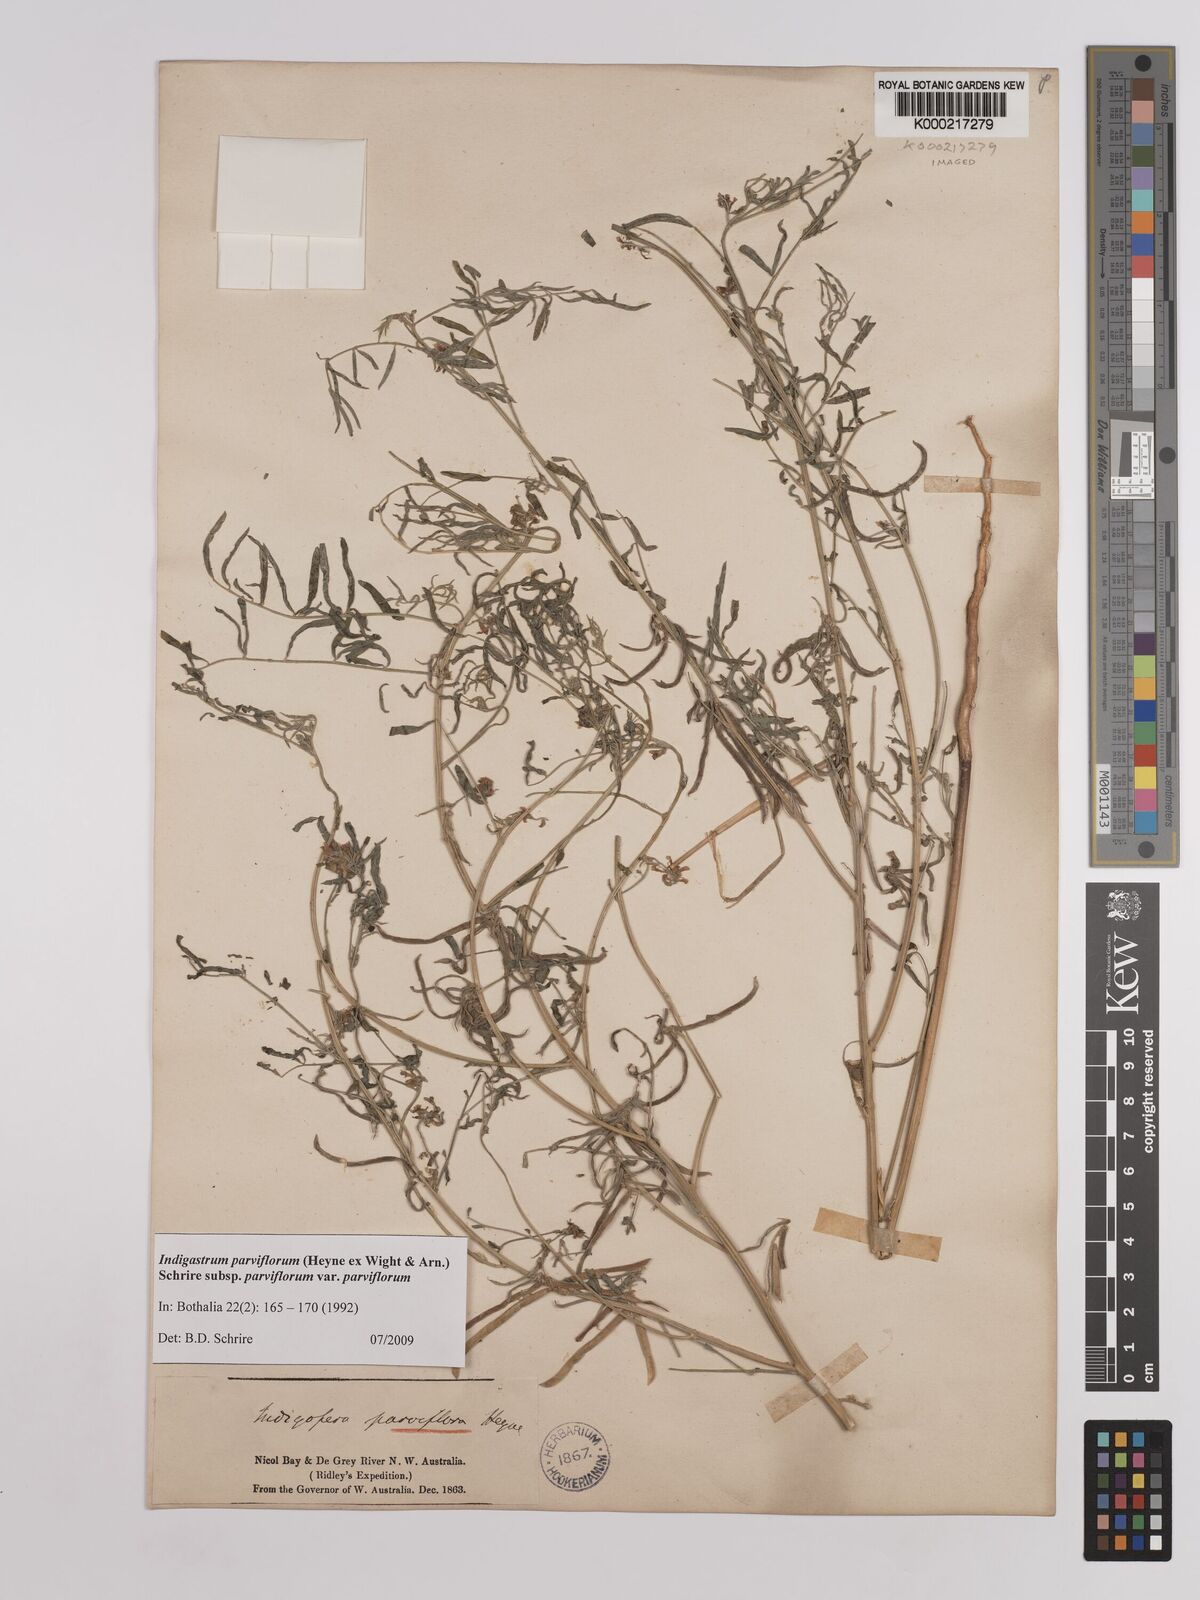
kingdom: Plantae
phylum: Tracheophyta
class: Magnoliopsida
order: Fabales
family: Fabaceae
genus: Indigastrum
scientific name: Indigastrum parviflorum
